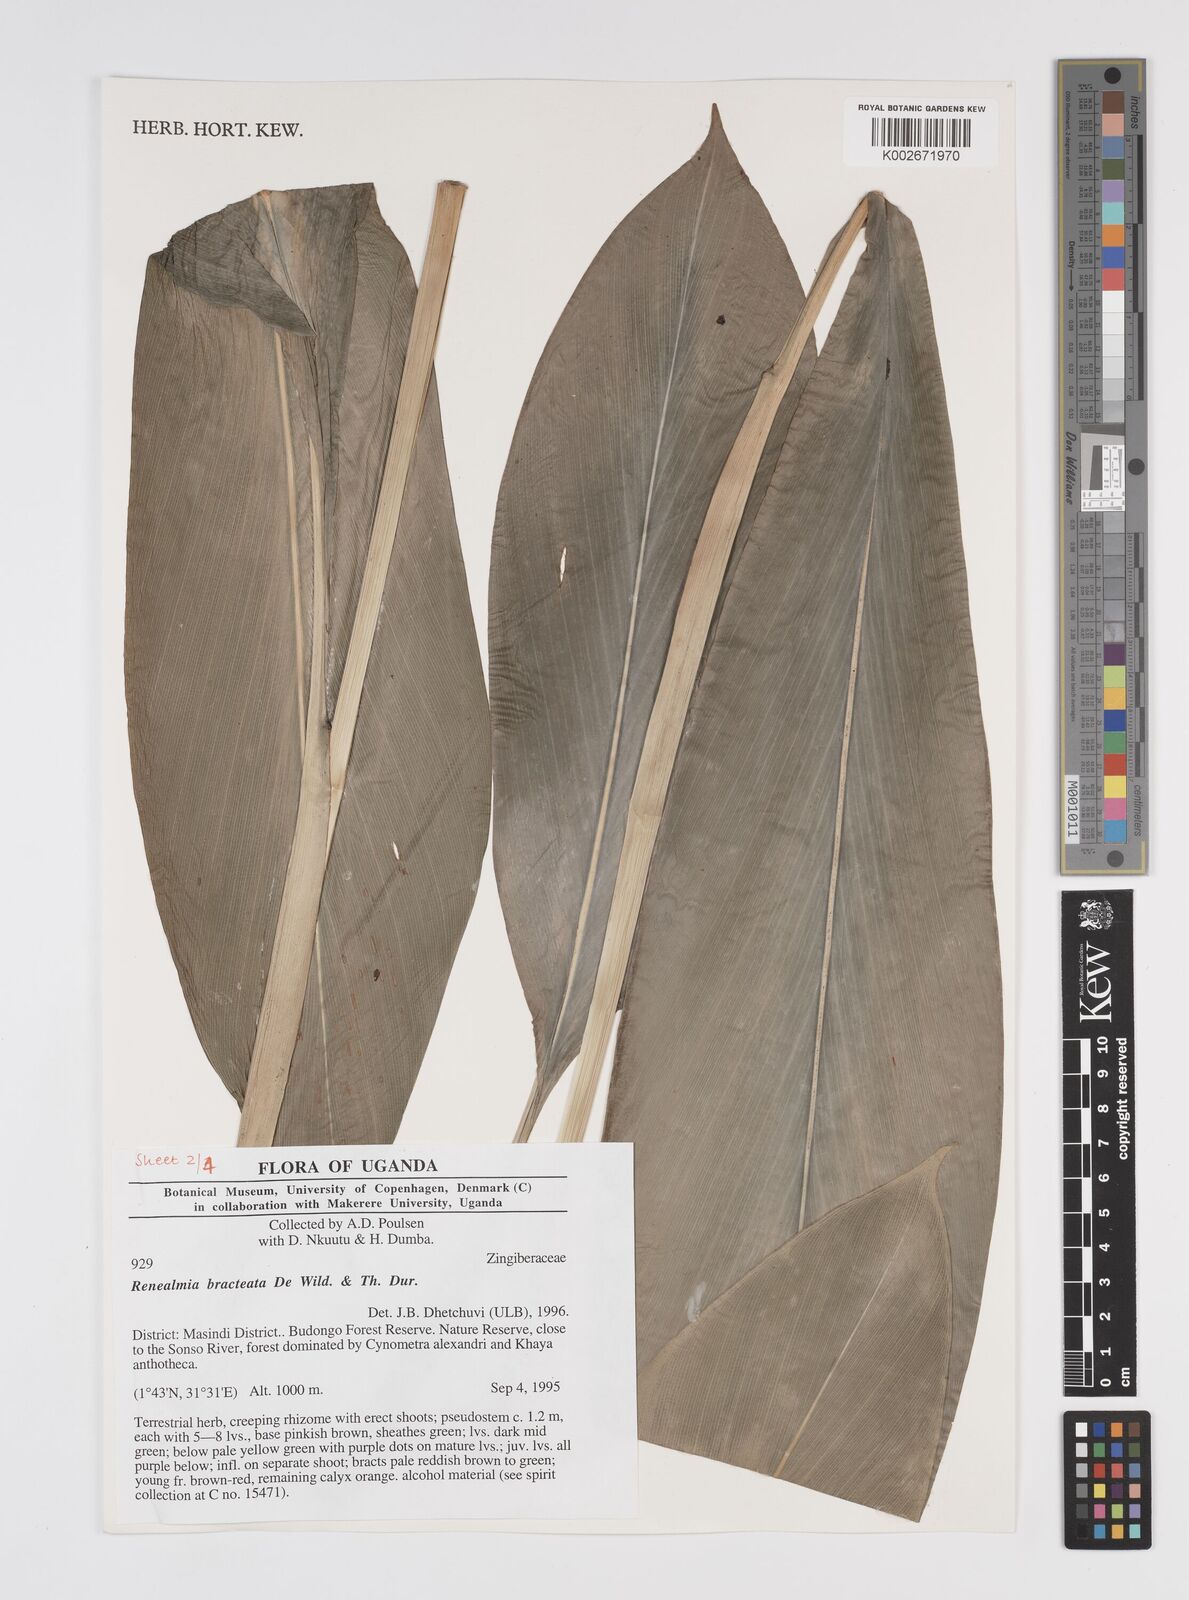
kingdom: Plantae
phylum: Tracheophyta
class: Liliopsida
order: Zingiberales
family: Zingiberaceae
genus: Renealmia
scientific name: Renealmia bracteata
